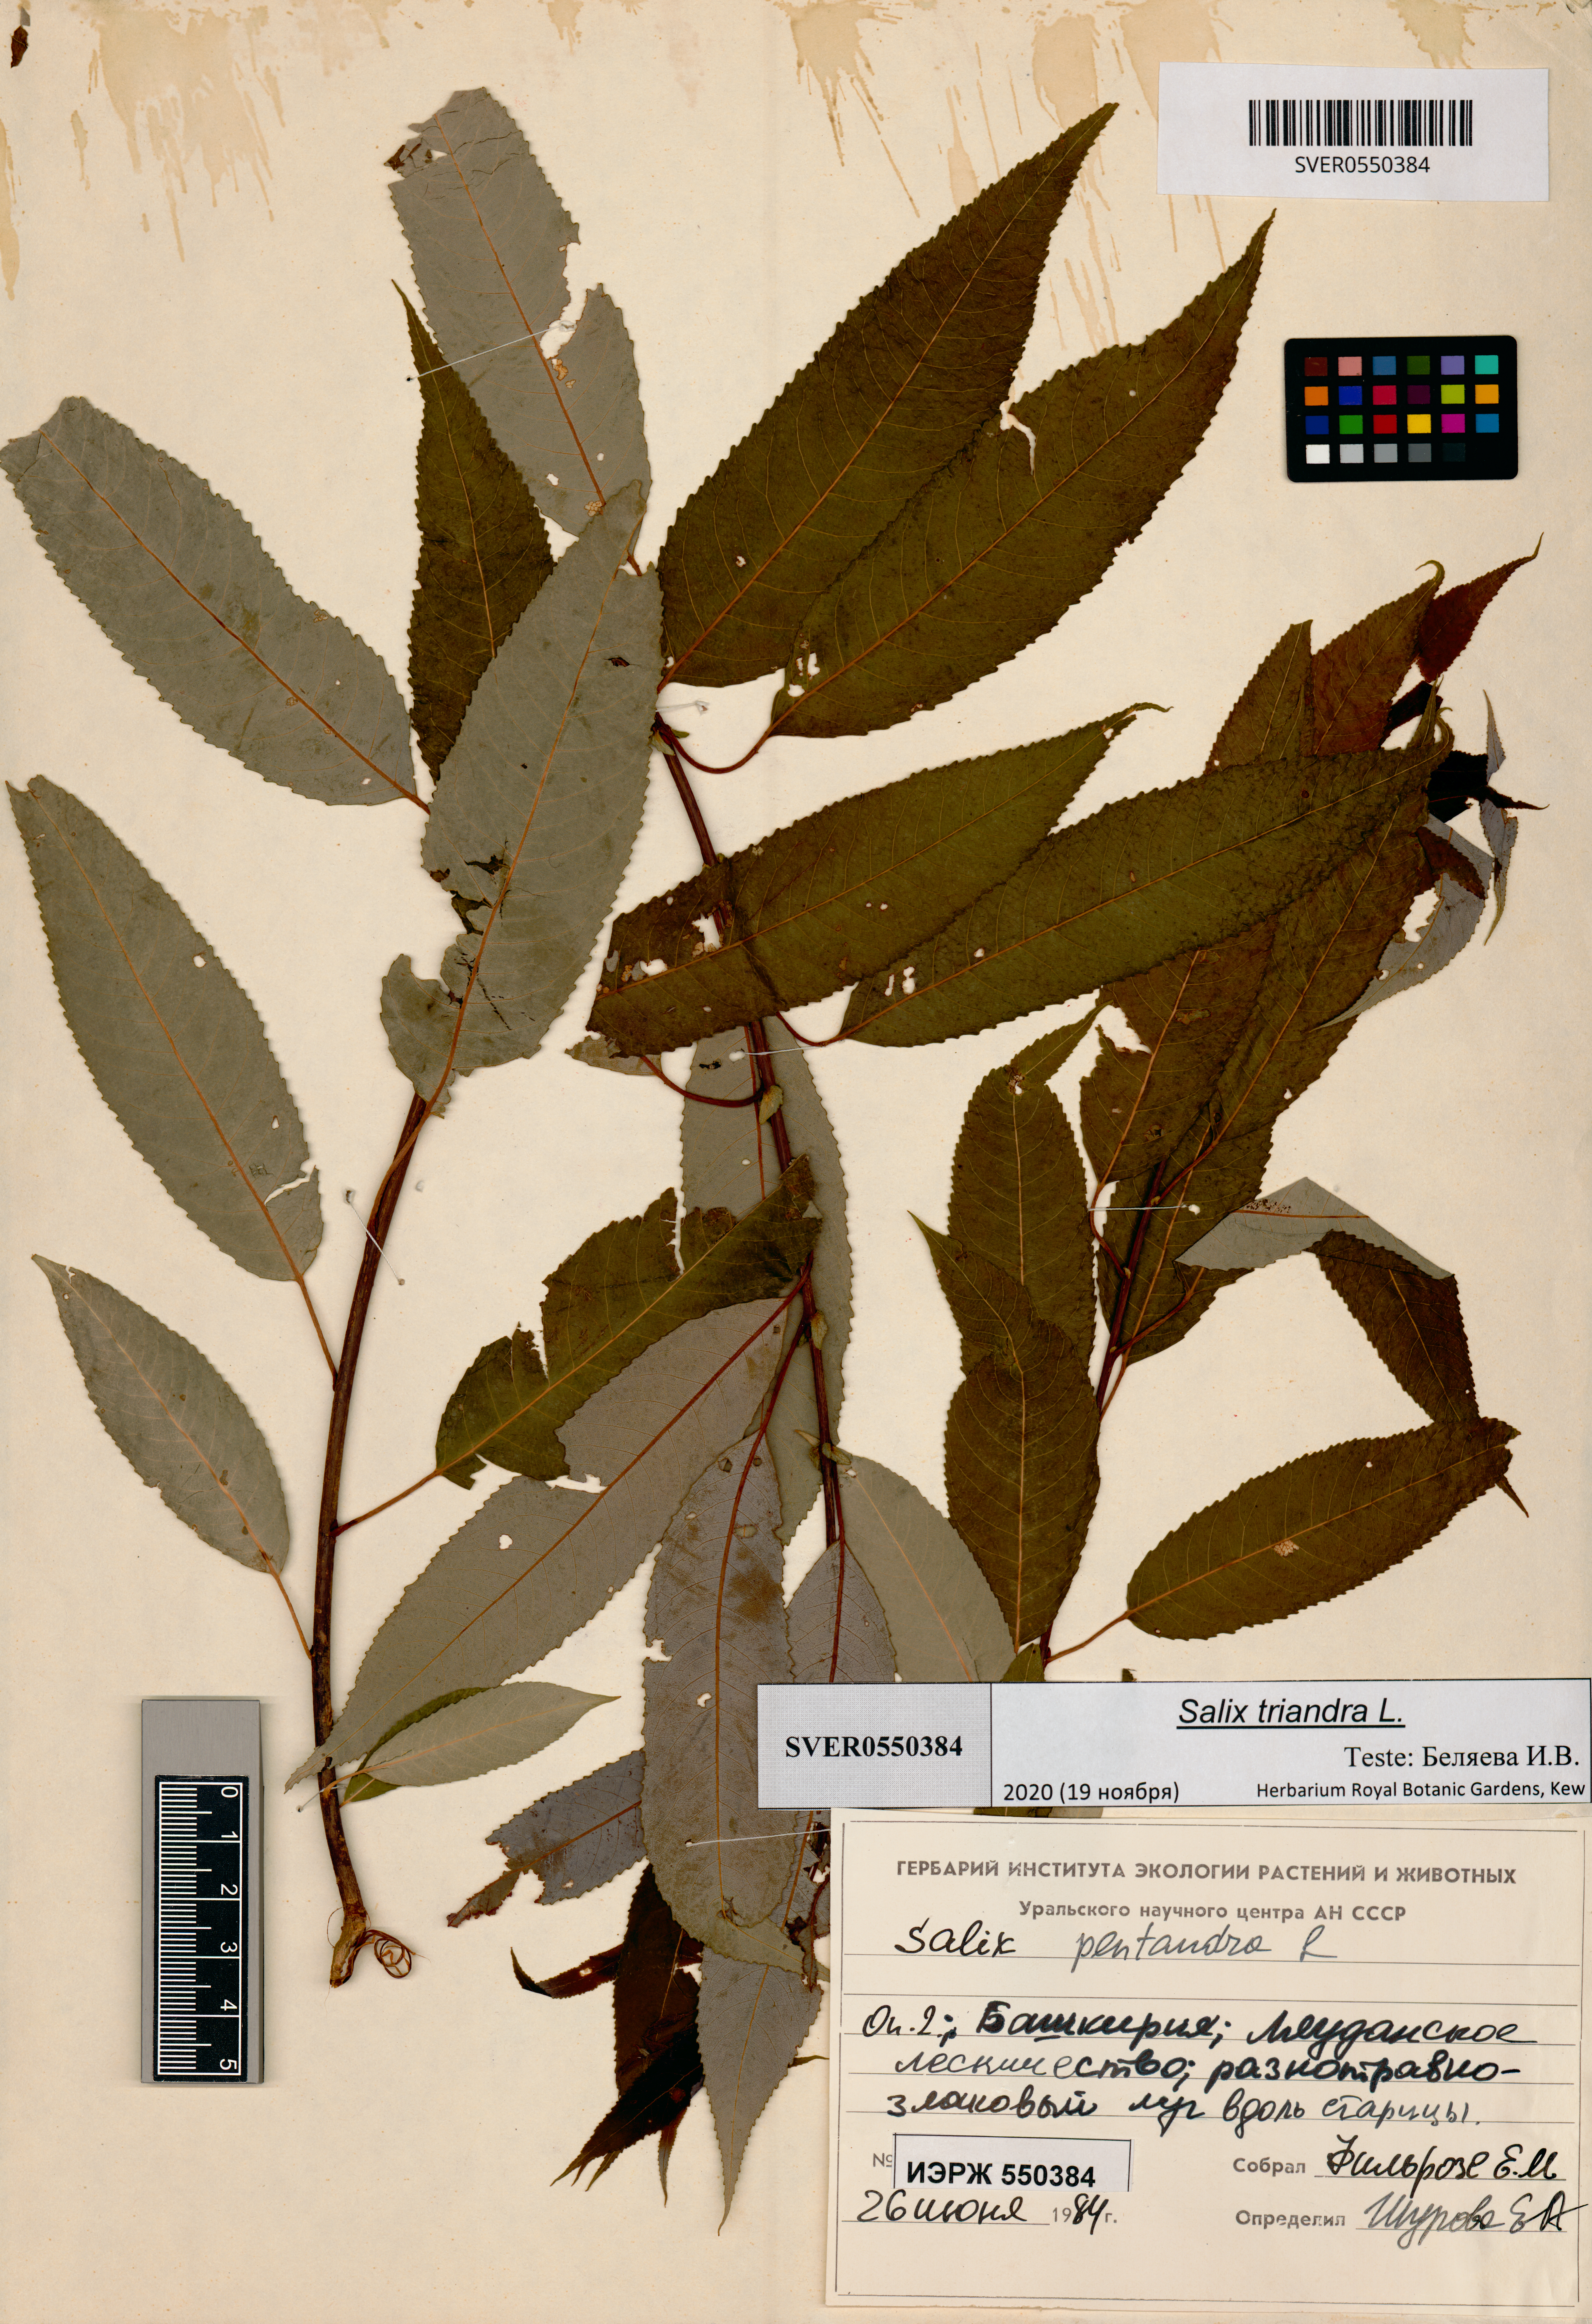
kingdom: Plantae
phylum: Tracheophyta
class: Magnoliopsida
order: Malpighiales
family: Salicaceae
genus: Salix
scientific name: Salix triandra
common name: Almond willow
